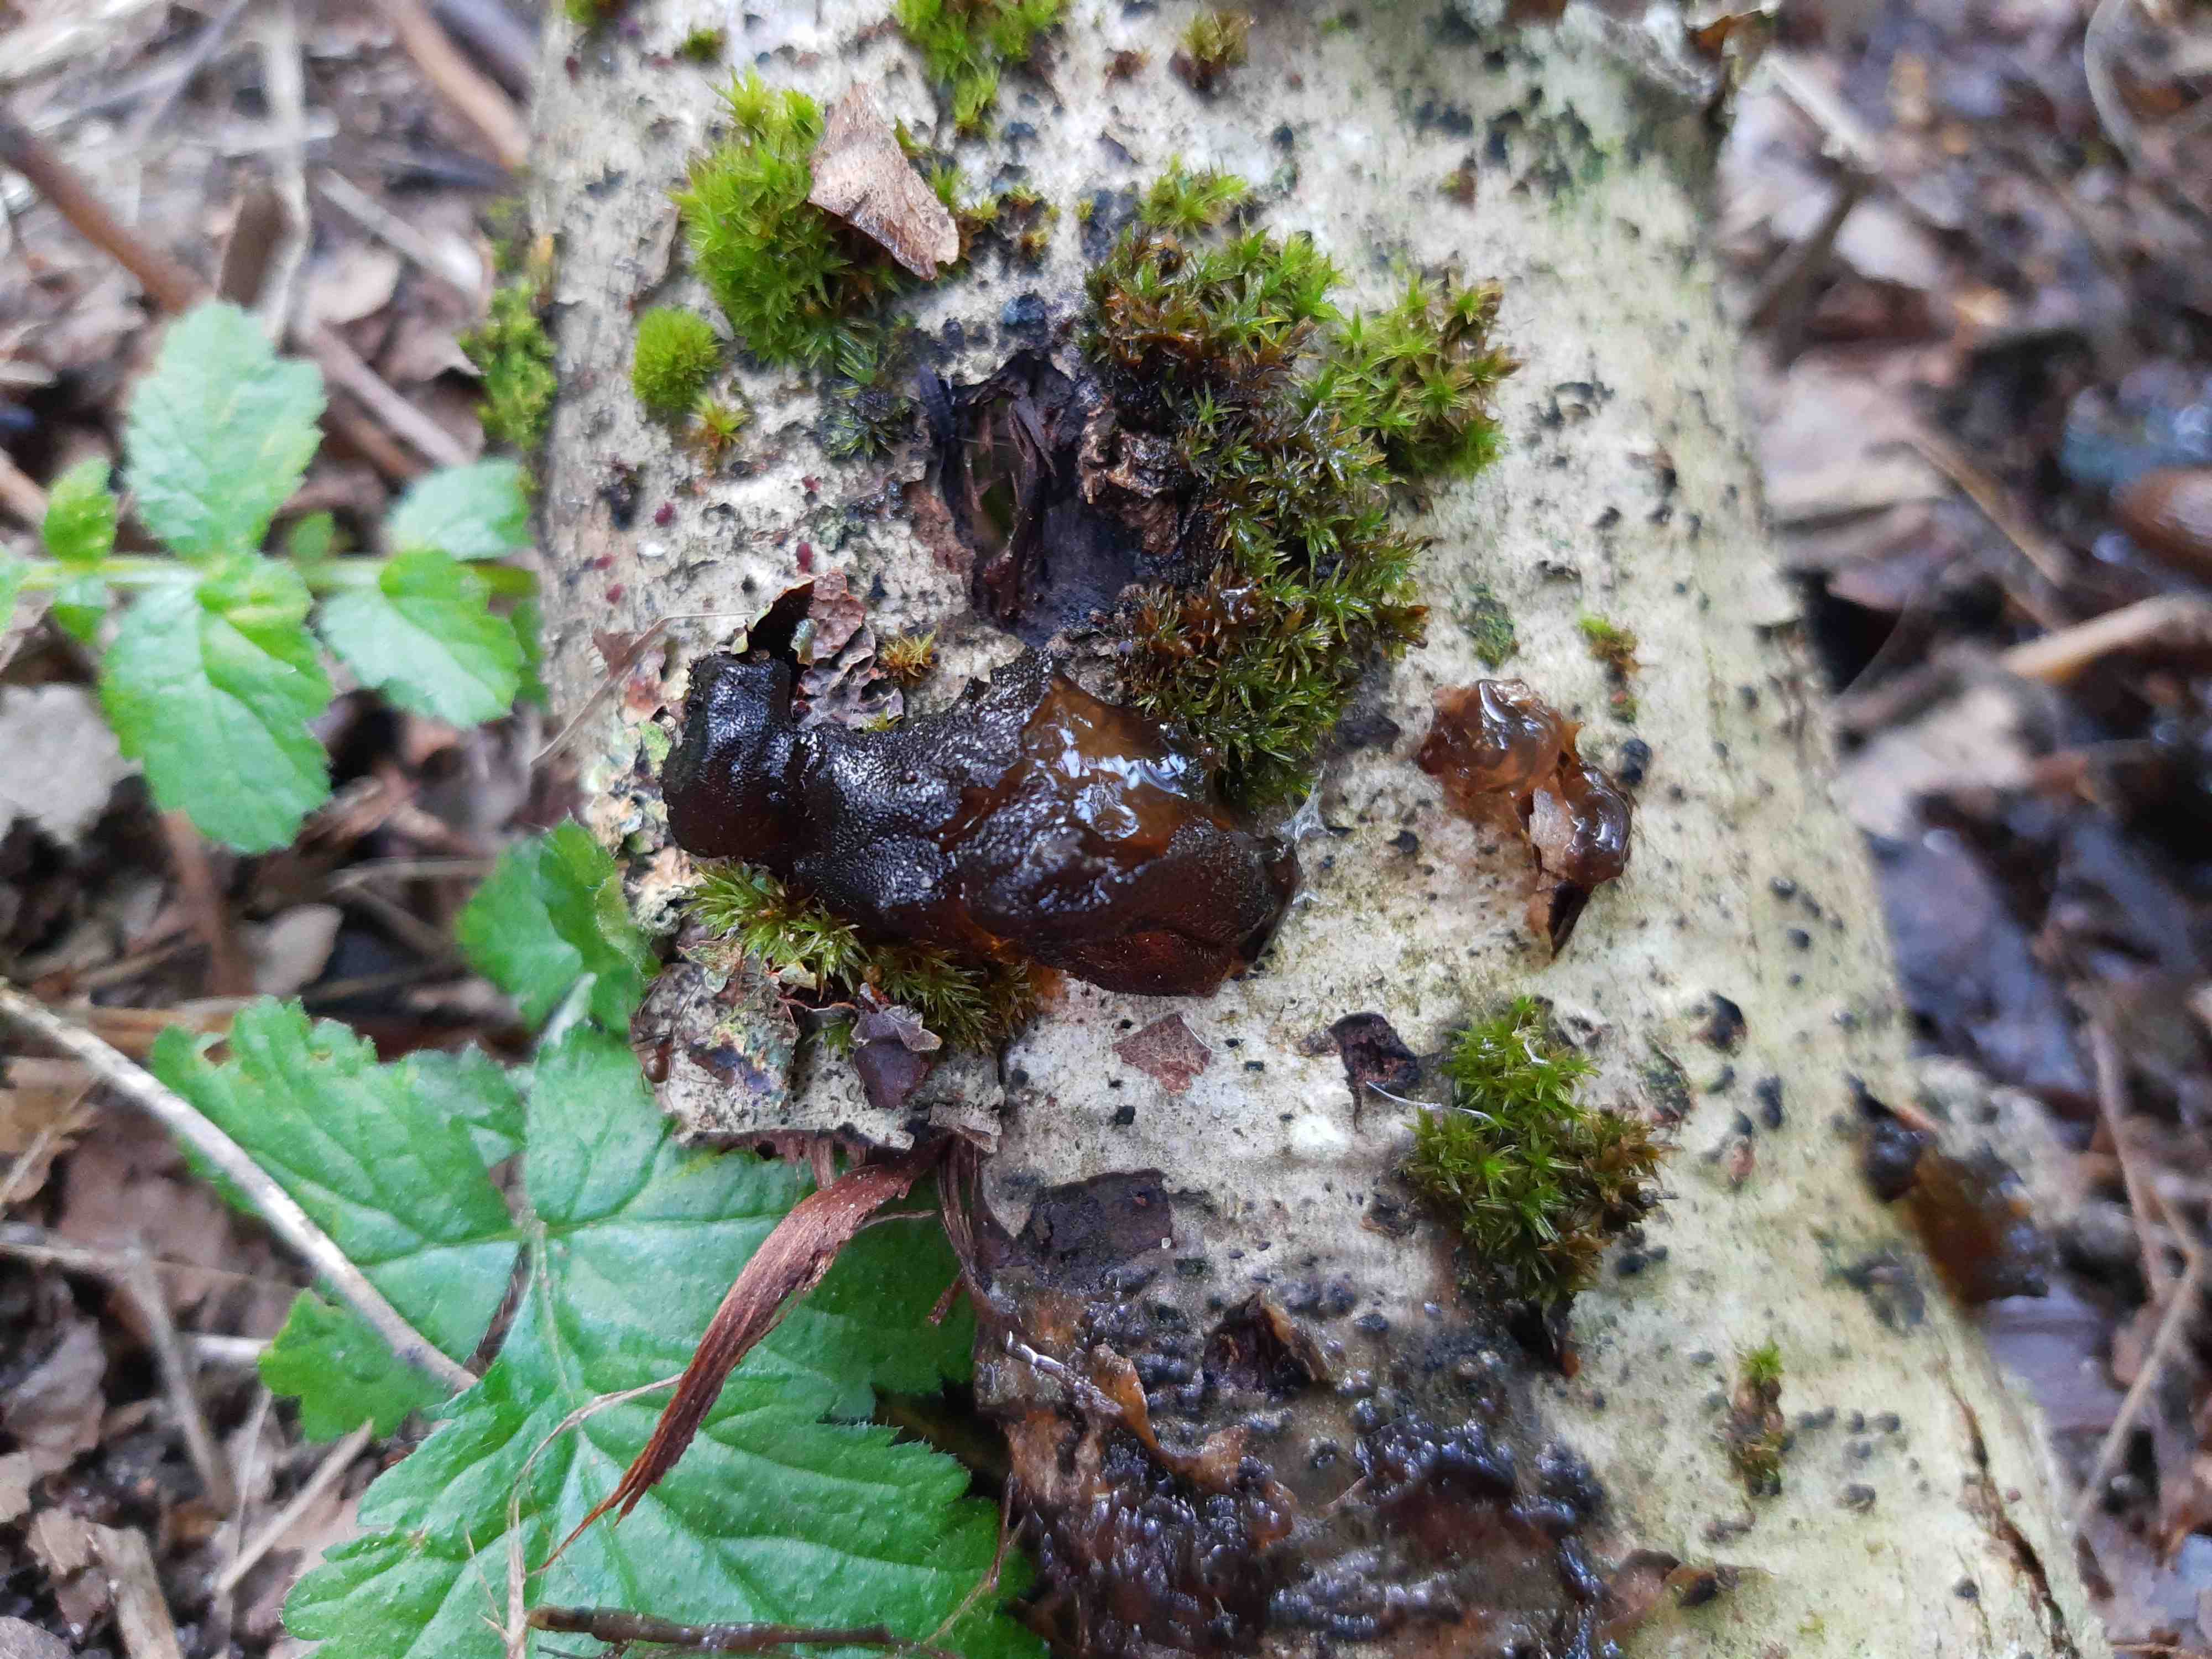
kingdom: Fungi
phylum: Basidiomycota
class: Agaricomycetes
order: Auriculariales
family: Auriculariaceae
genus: Exidia
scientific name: Exidia glandulosa
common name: ege-bævretop
